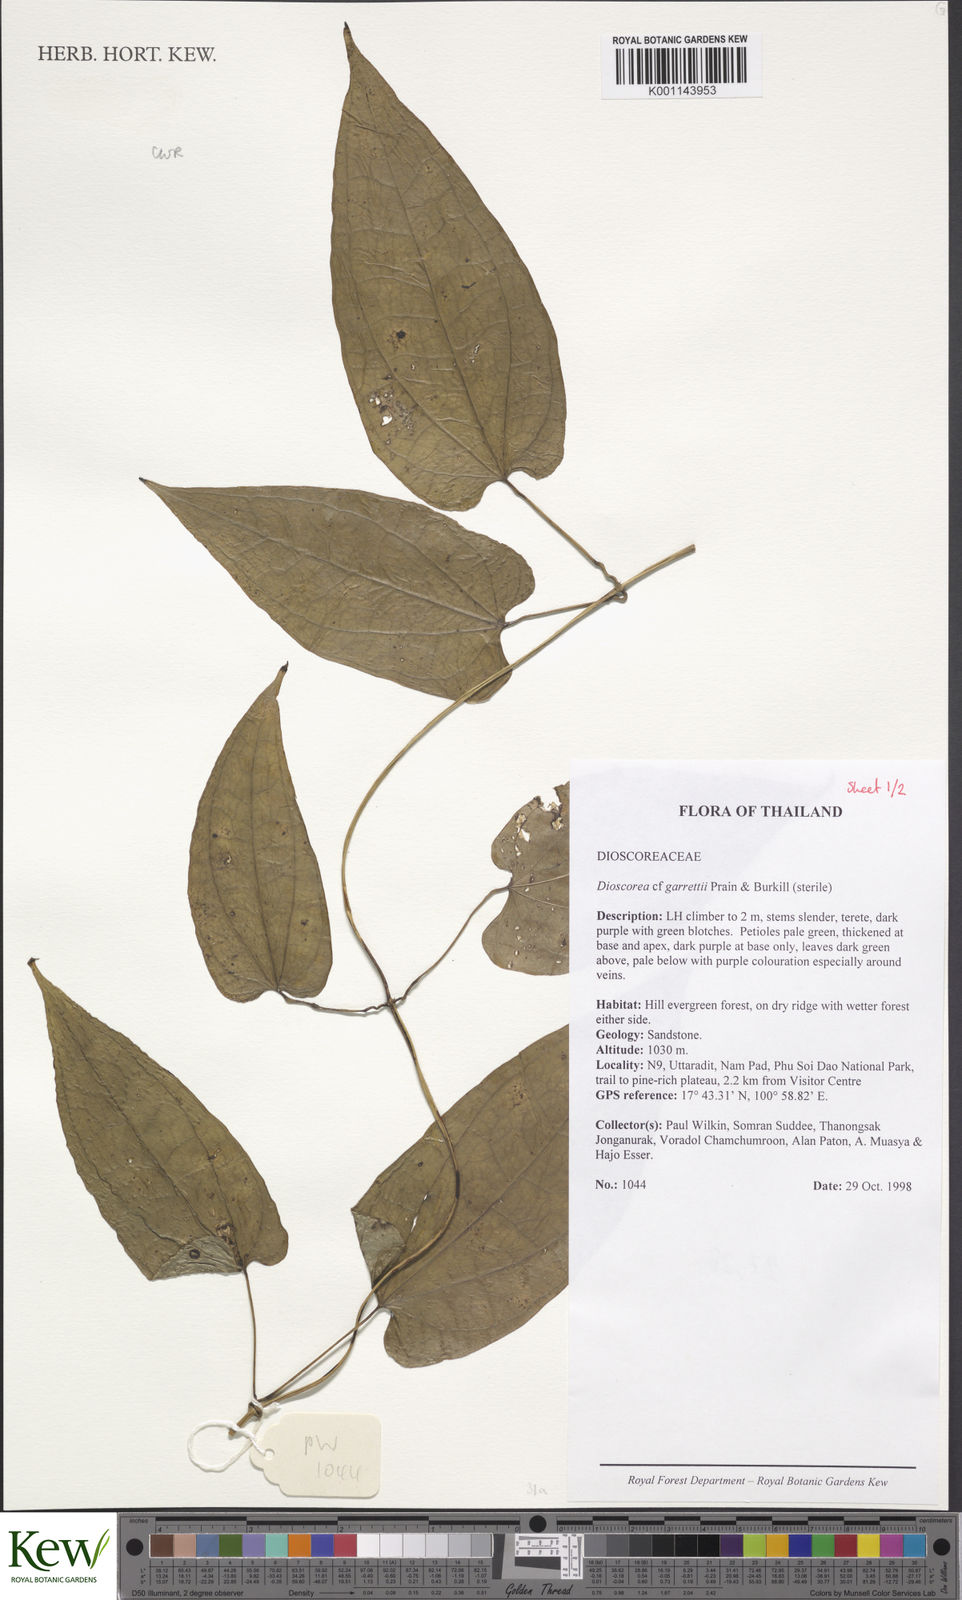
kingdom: Plantae
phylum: Tracheophyta
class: Liliopsida
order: Dioscoreales
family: Dioscoreaceae
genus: Dioscorea
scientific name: Dioscorea filiformis
